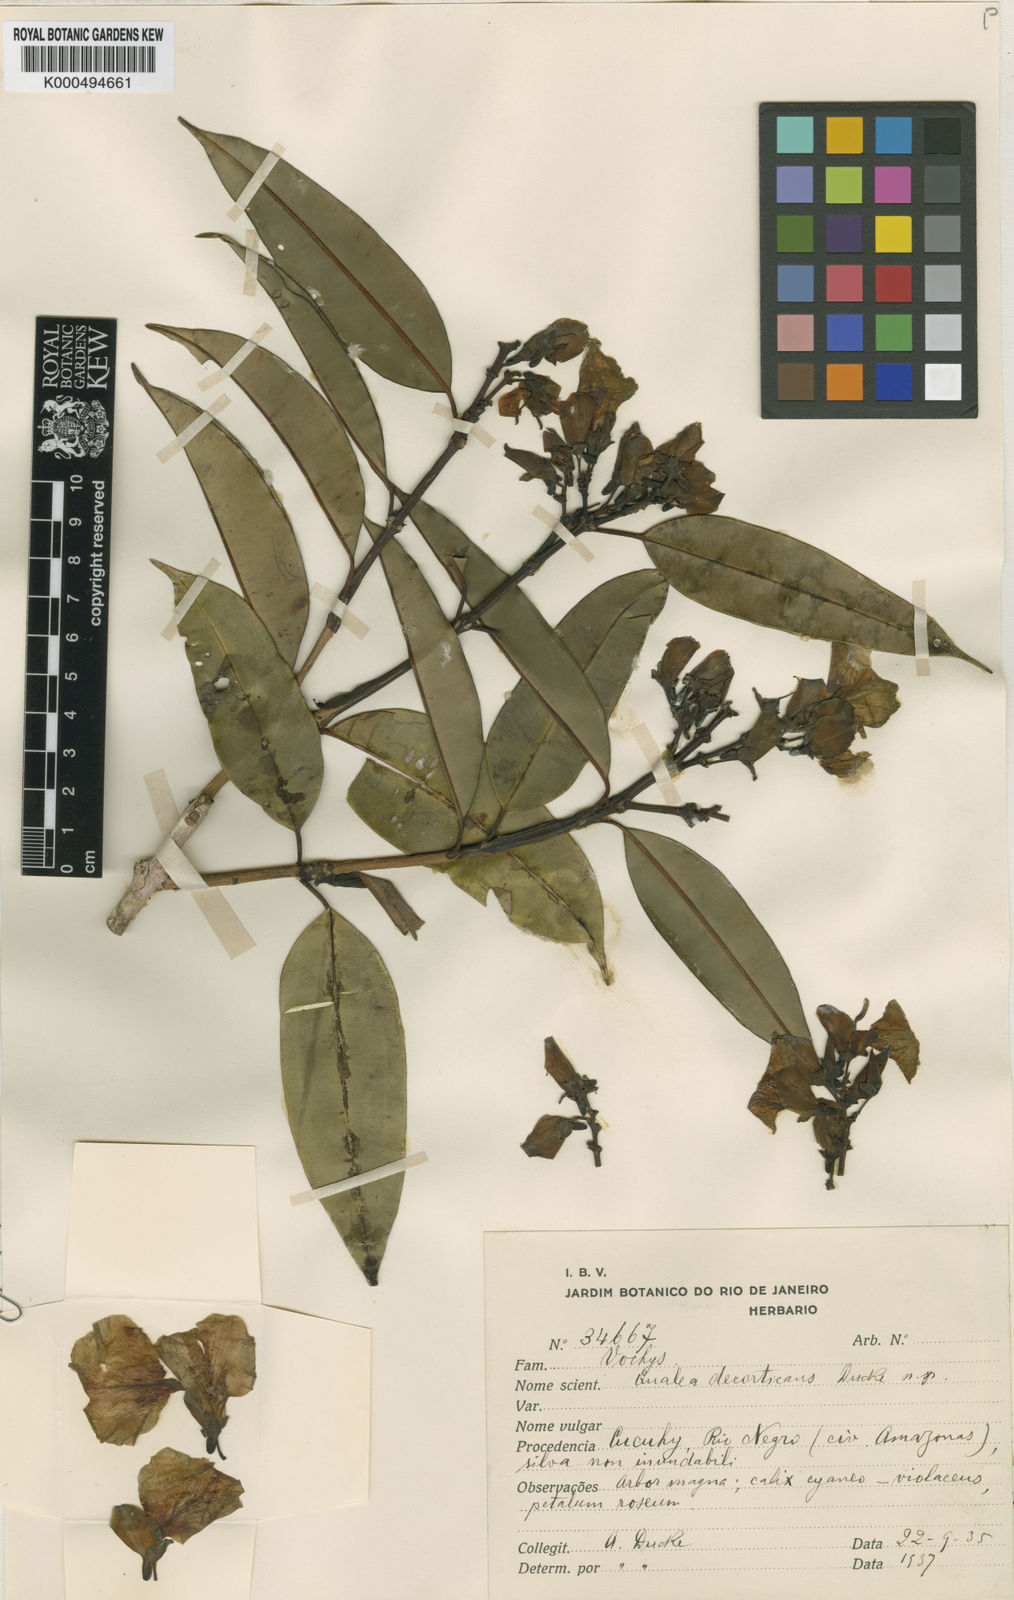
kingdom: Plantae
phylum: Tracheophyta
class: Magnoliopsida
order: Myrtales
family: Vochysiaceae
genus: Qualea
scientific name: Qualea decorticans
